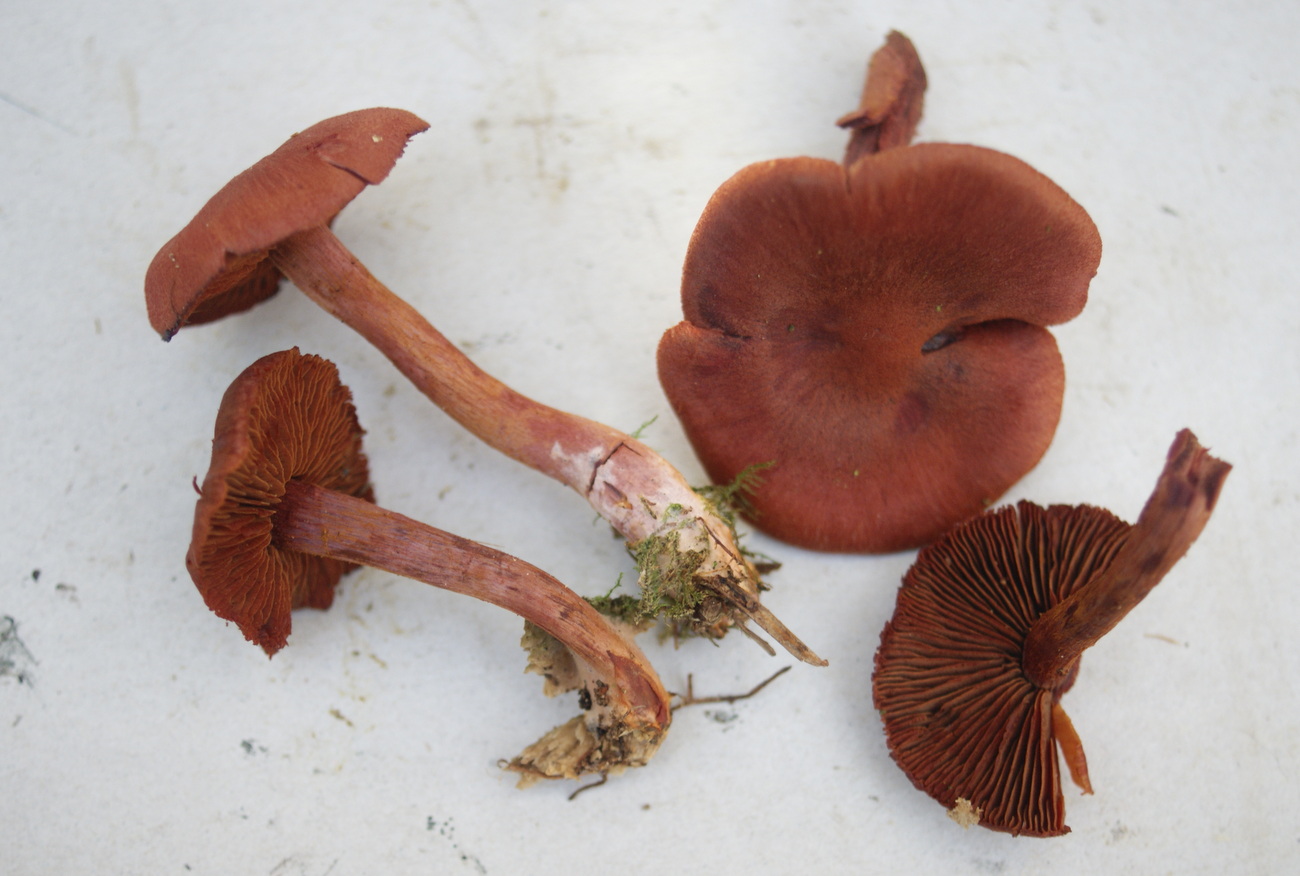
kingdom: Fungi
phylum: Basidiomycota
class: Agaricomycetes
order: Agaricales
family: Cortinariaceae
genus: Cortinarius
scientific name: Cortinarius sanguineus
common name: blodrød slørhat
